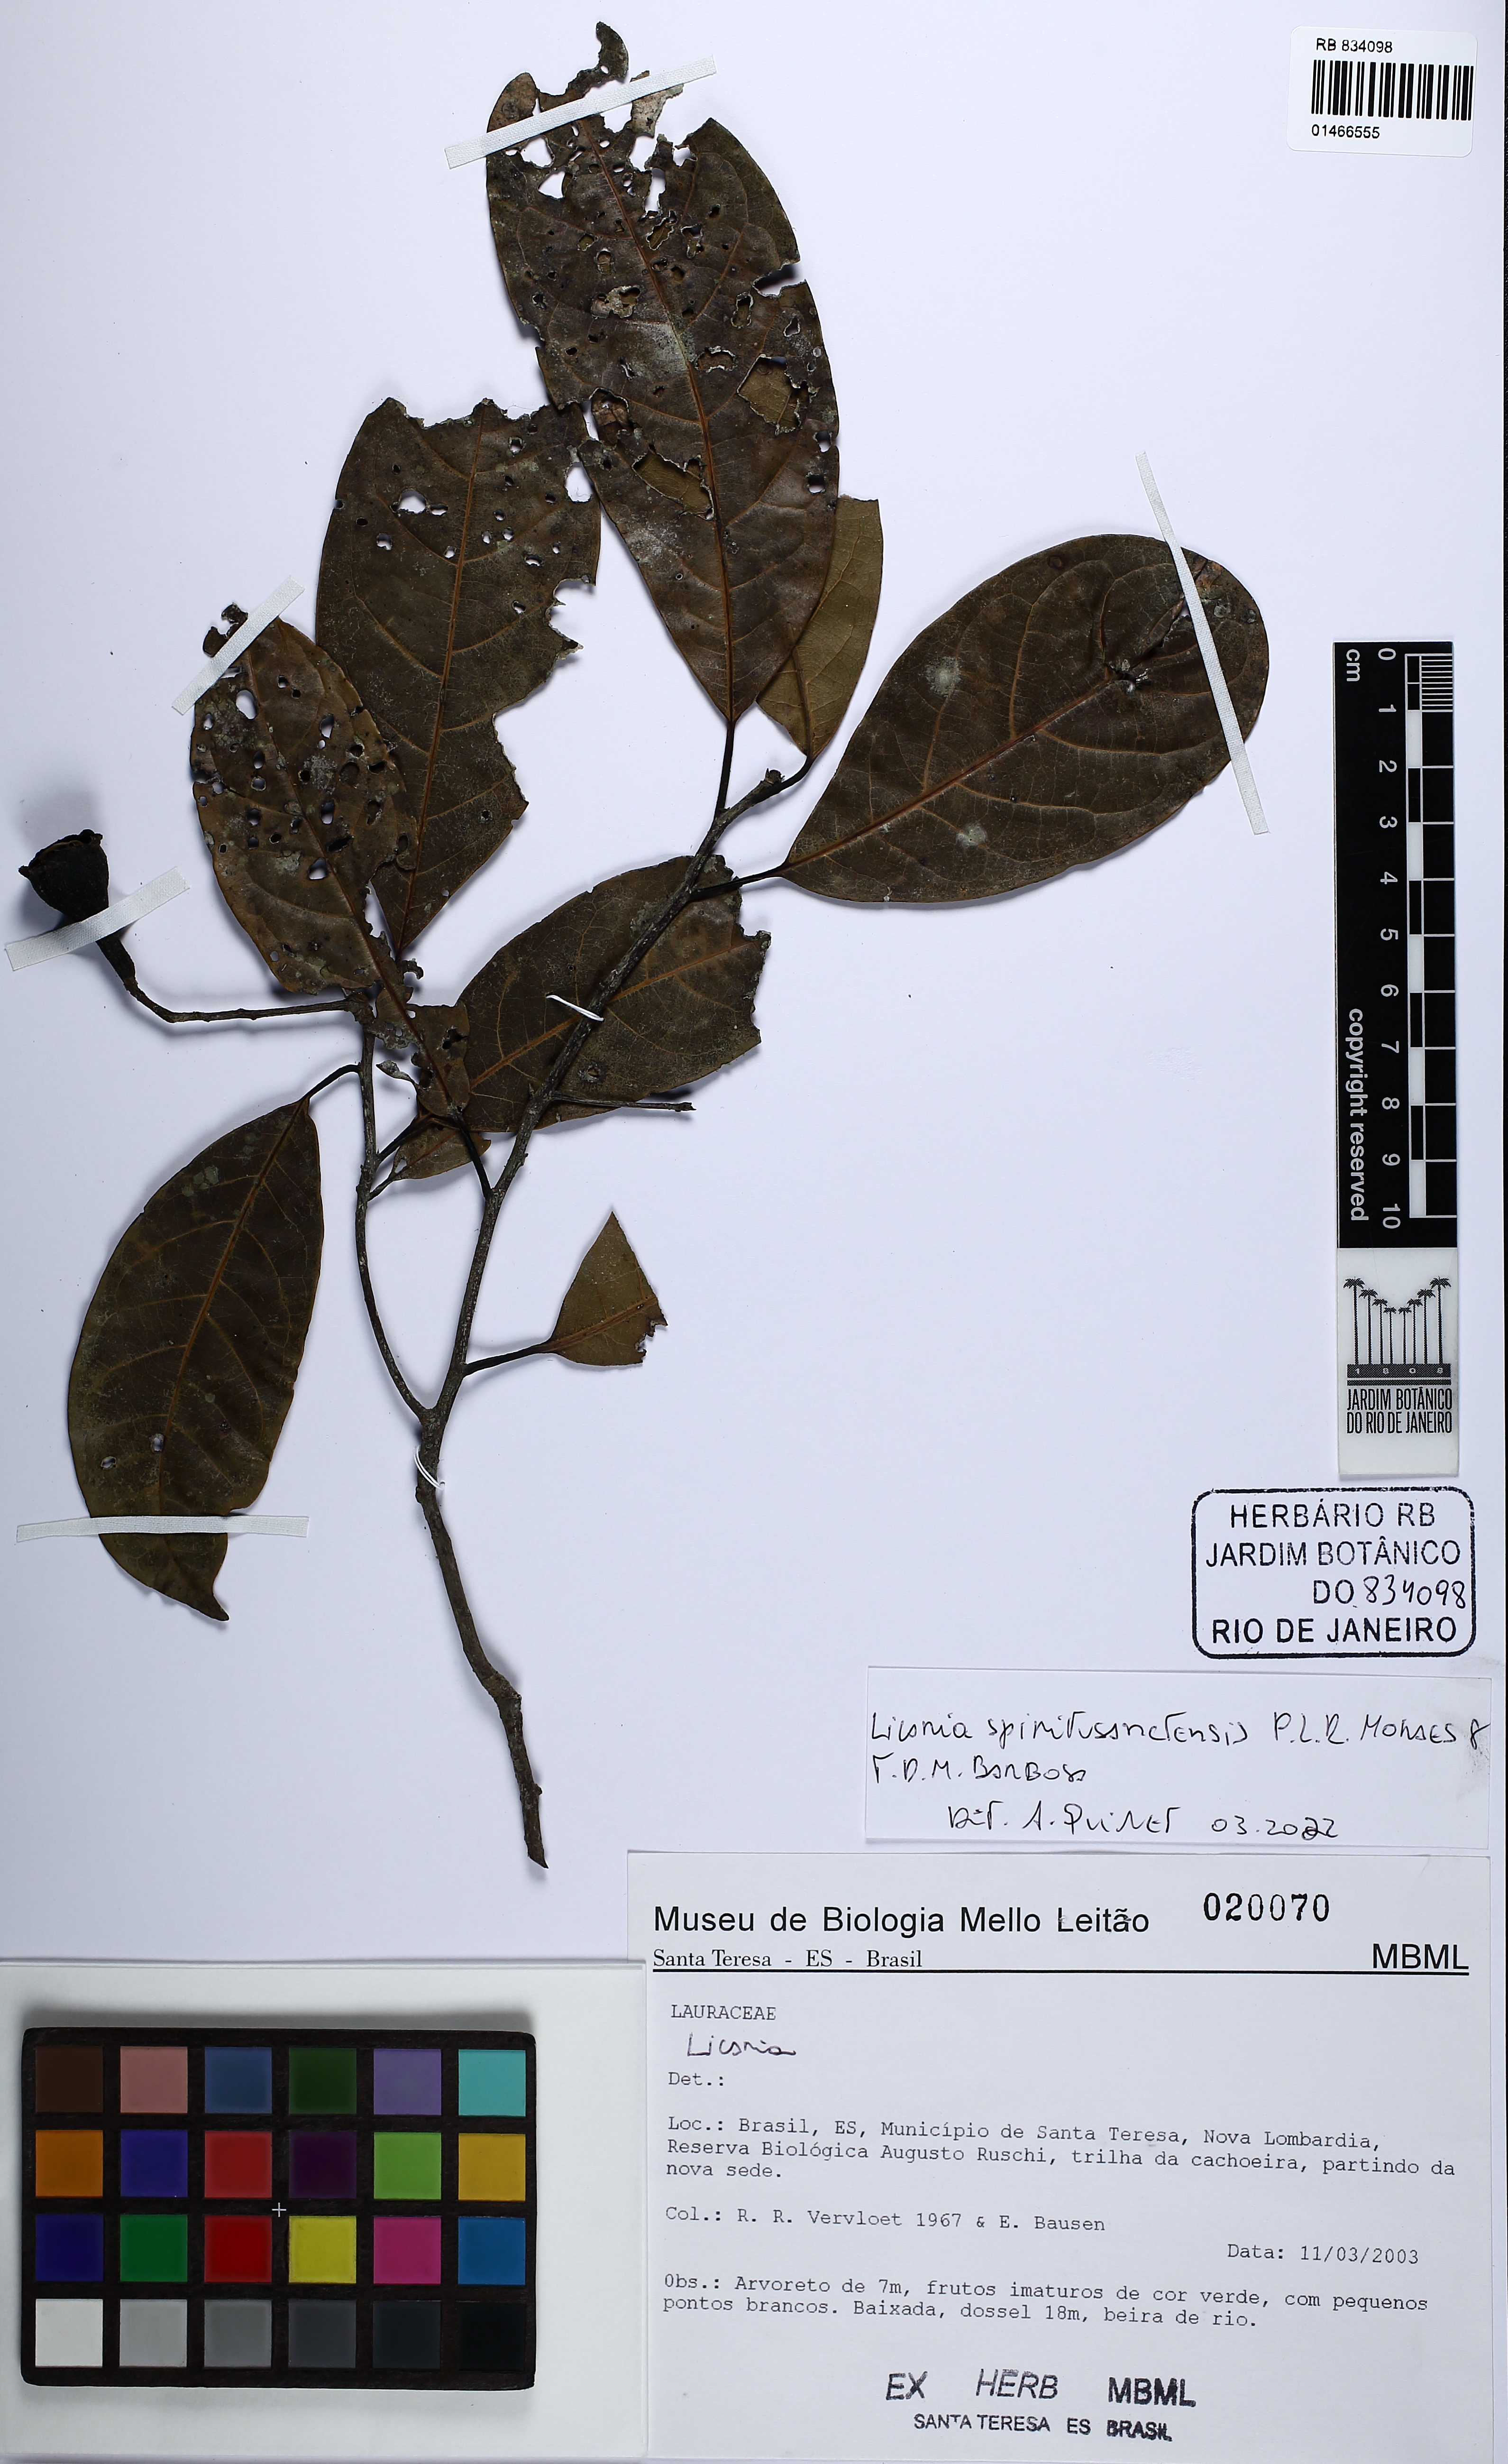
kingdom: Plantae
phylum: Tracheophyta
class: Magnoliopsida
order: Laurales
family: Lauraceae
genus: Licaria
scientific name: Licaria spiritusanctensis
